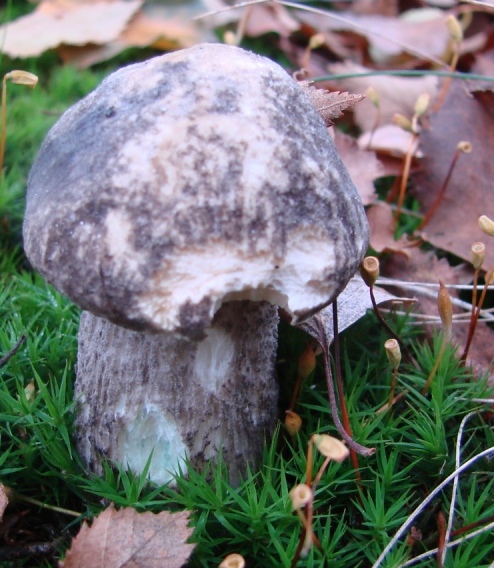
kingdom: Fungi
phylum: Basidiomycota
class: Agaricomycetes
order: Boletales
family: Boletaceae
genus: Leccinum
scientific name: Leccinum variicolor
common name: flammet skælrørhat
